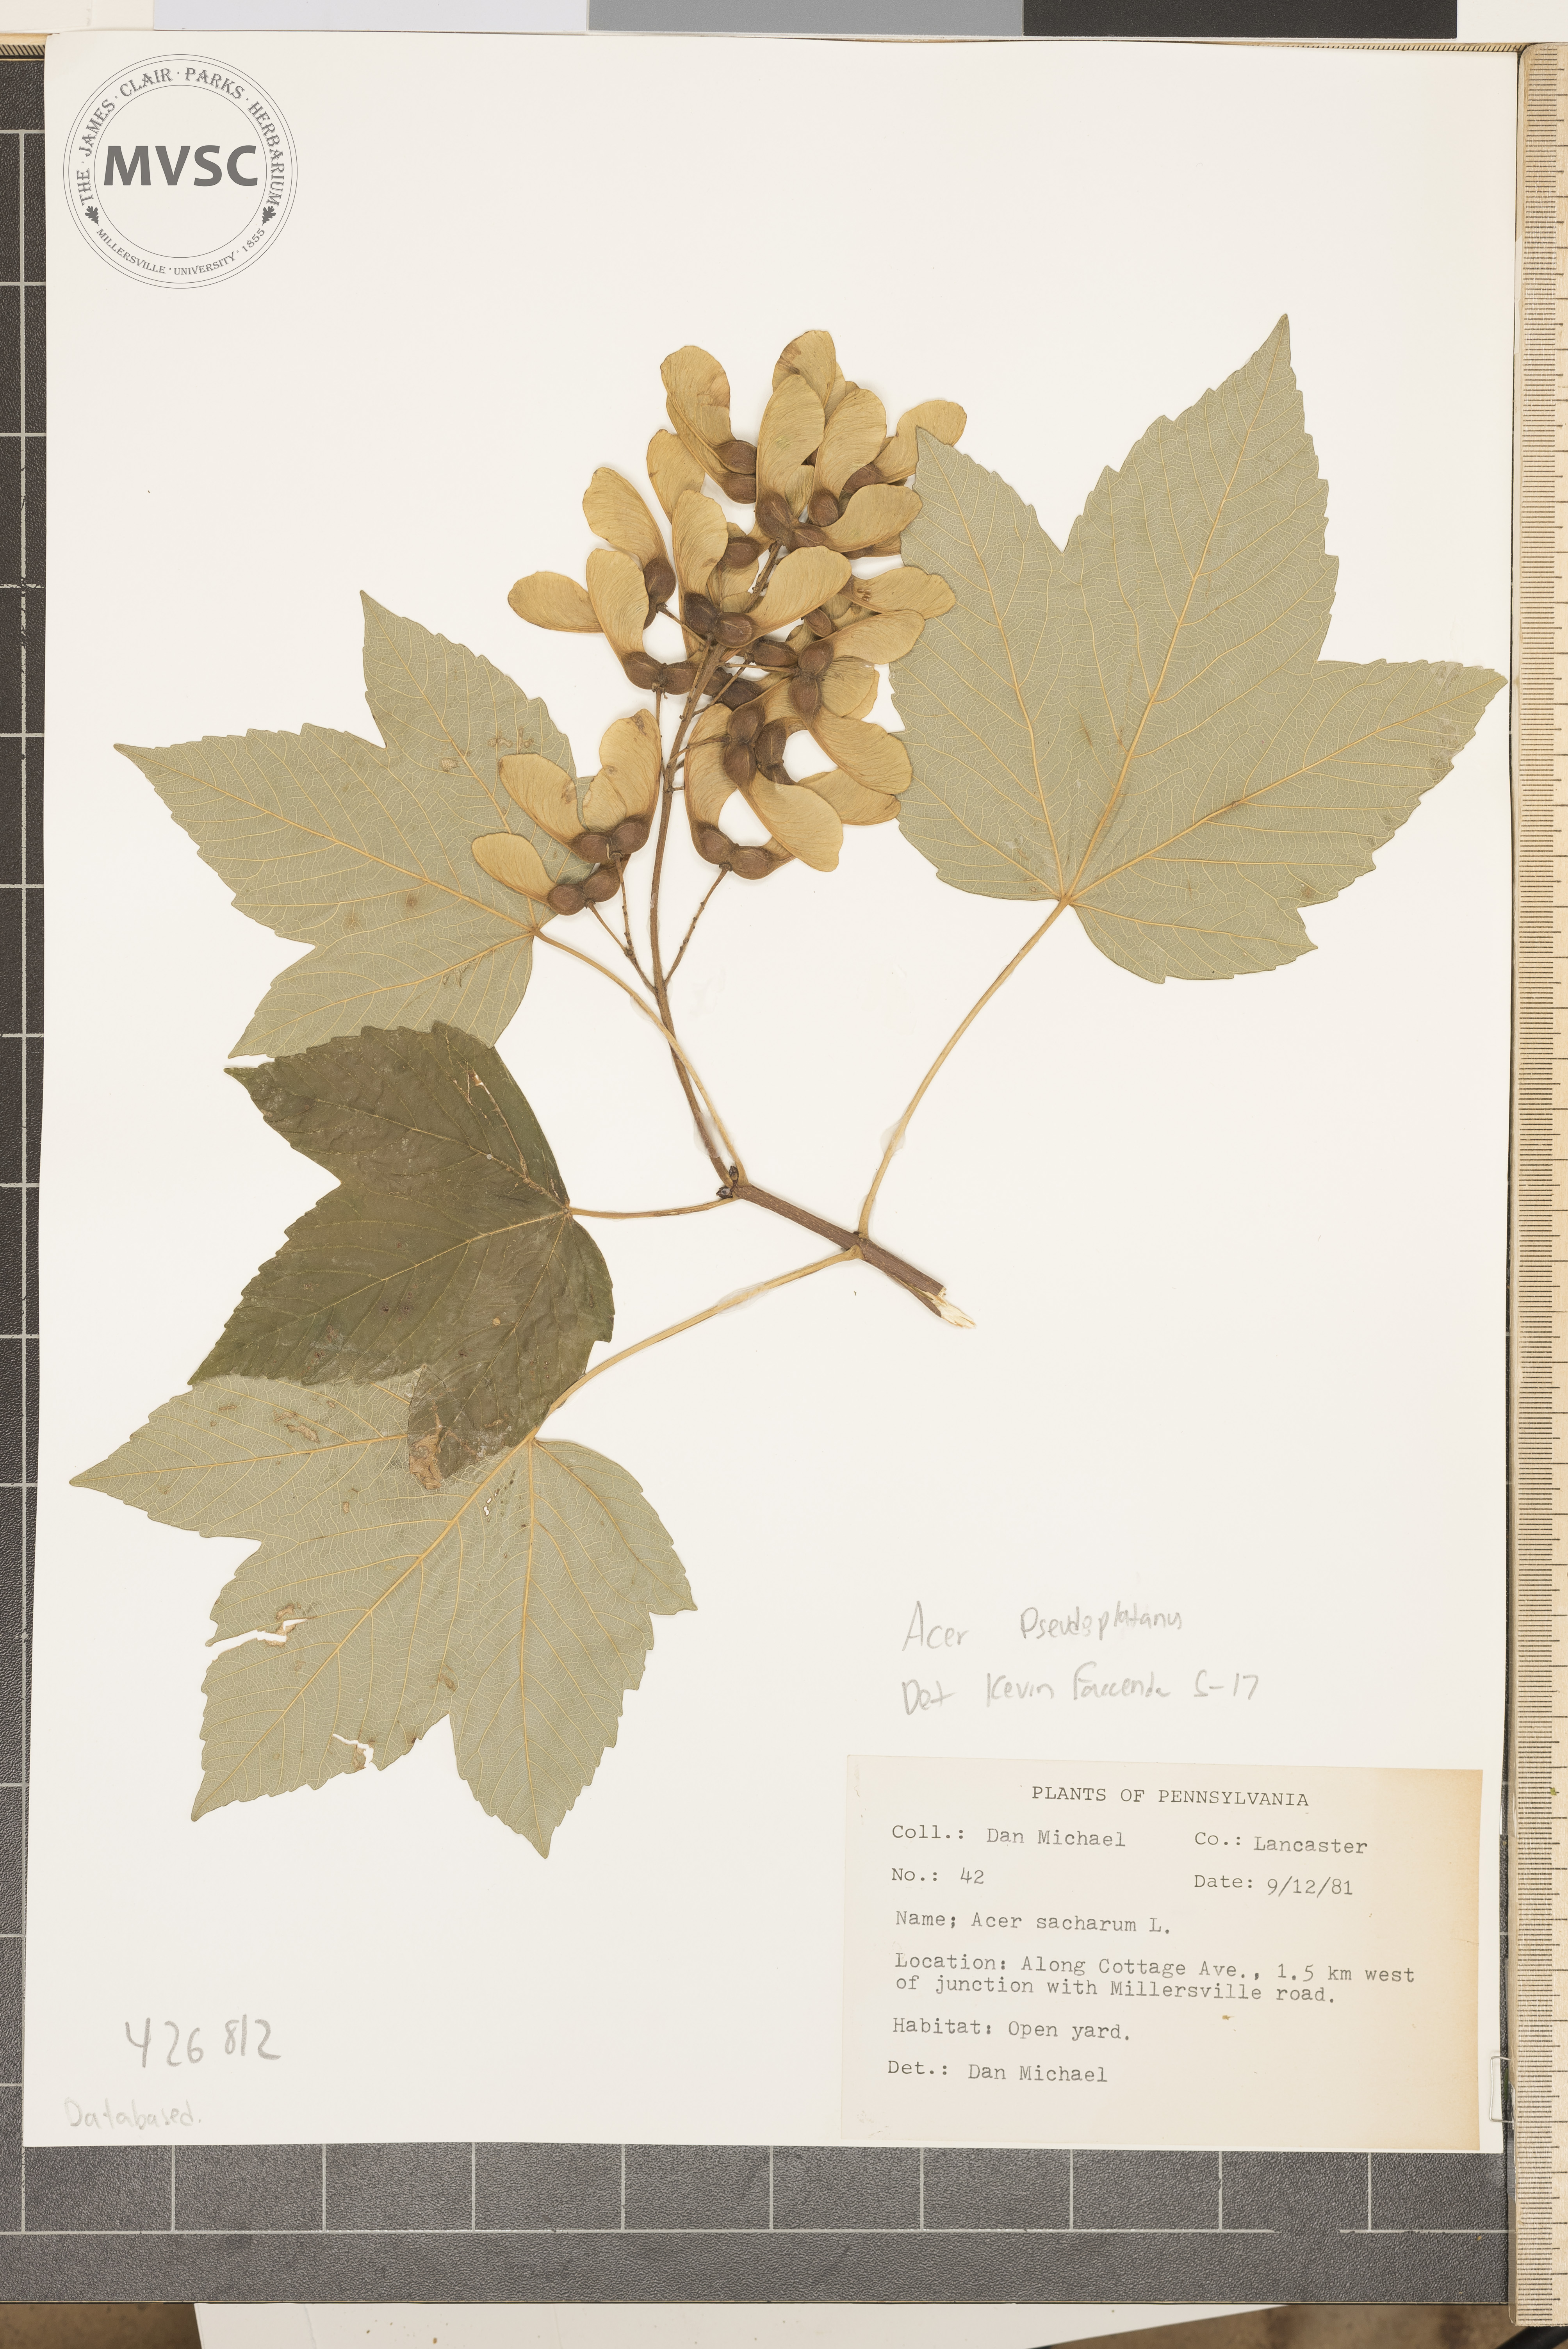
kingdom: Plantae
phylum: Tracheophyta
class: Magnoliopsida
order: Sapindales
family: Sapindaceae
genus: Acer
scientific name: Acer pseudoplatanus
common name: Sycamore Maple
